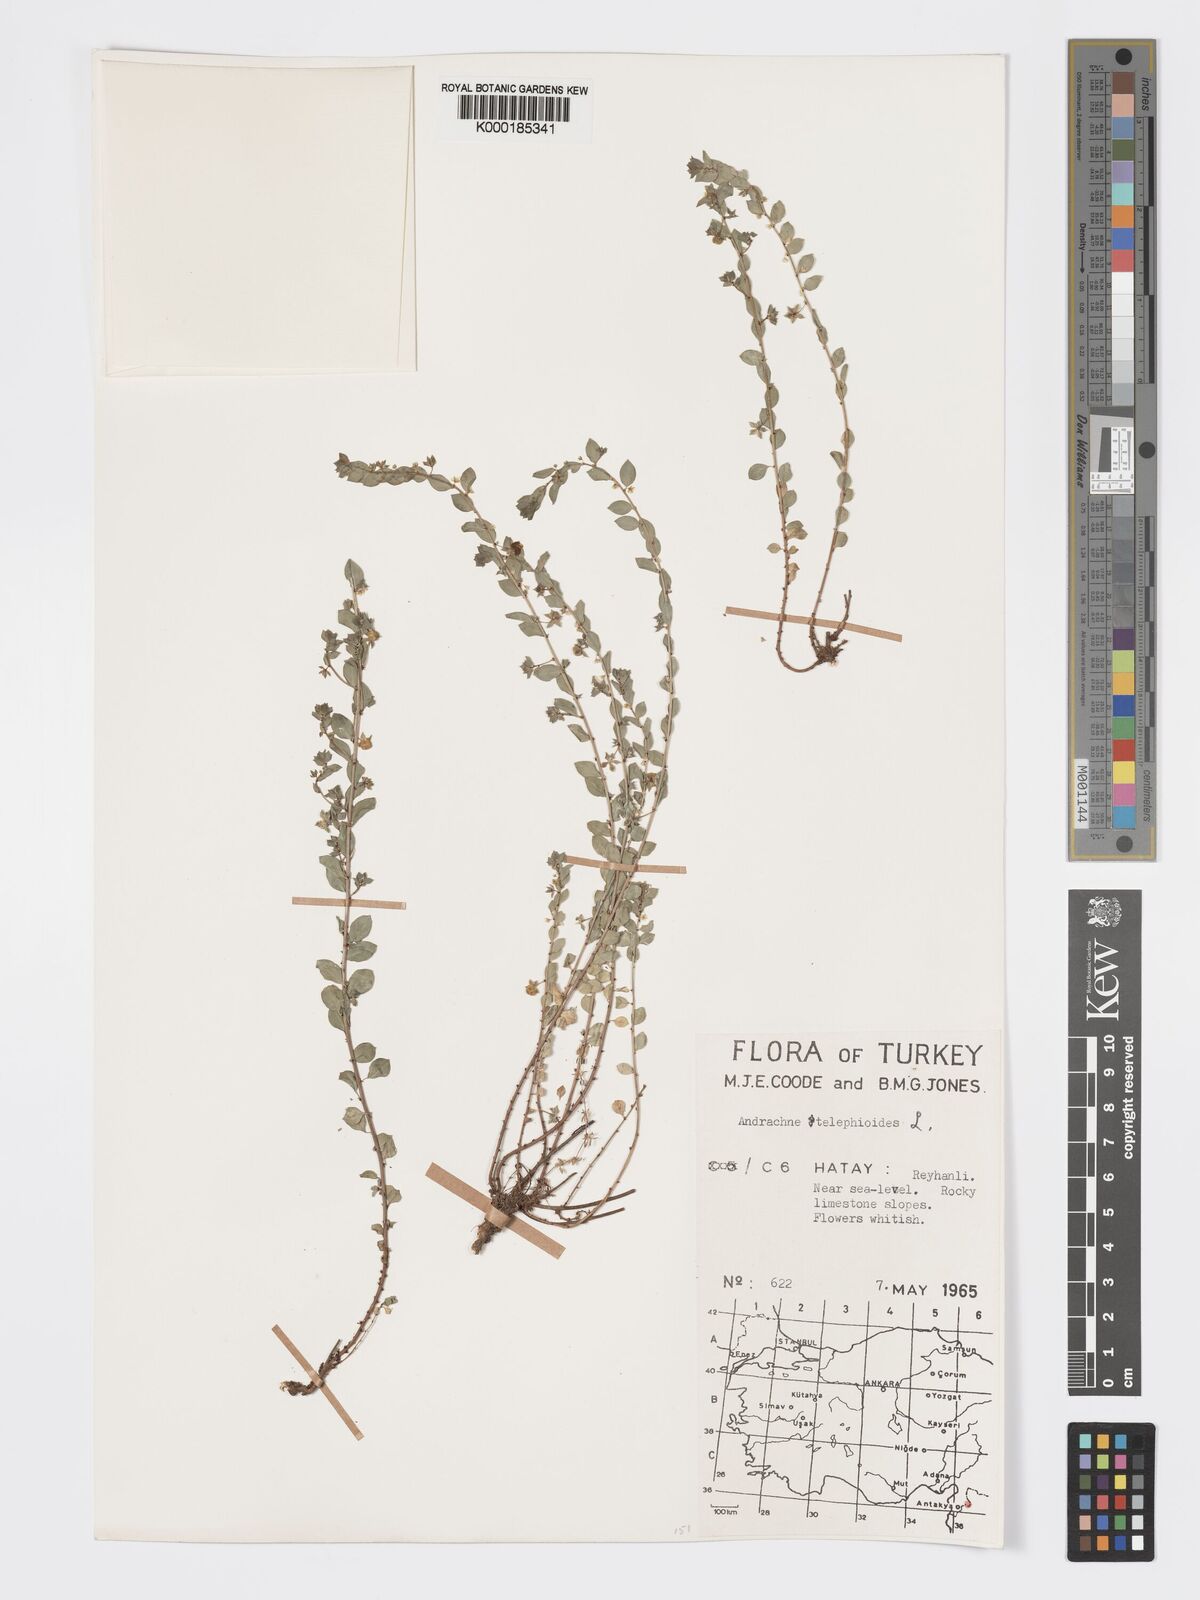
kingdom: Plantae
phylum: Tracheophyta
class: Magnoliopsida
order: Malpighiales
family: Phyllanthaceae
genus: Andrachne
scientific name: Andrachne telephioides
